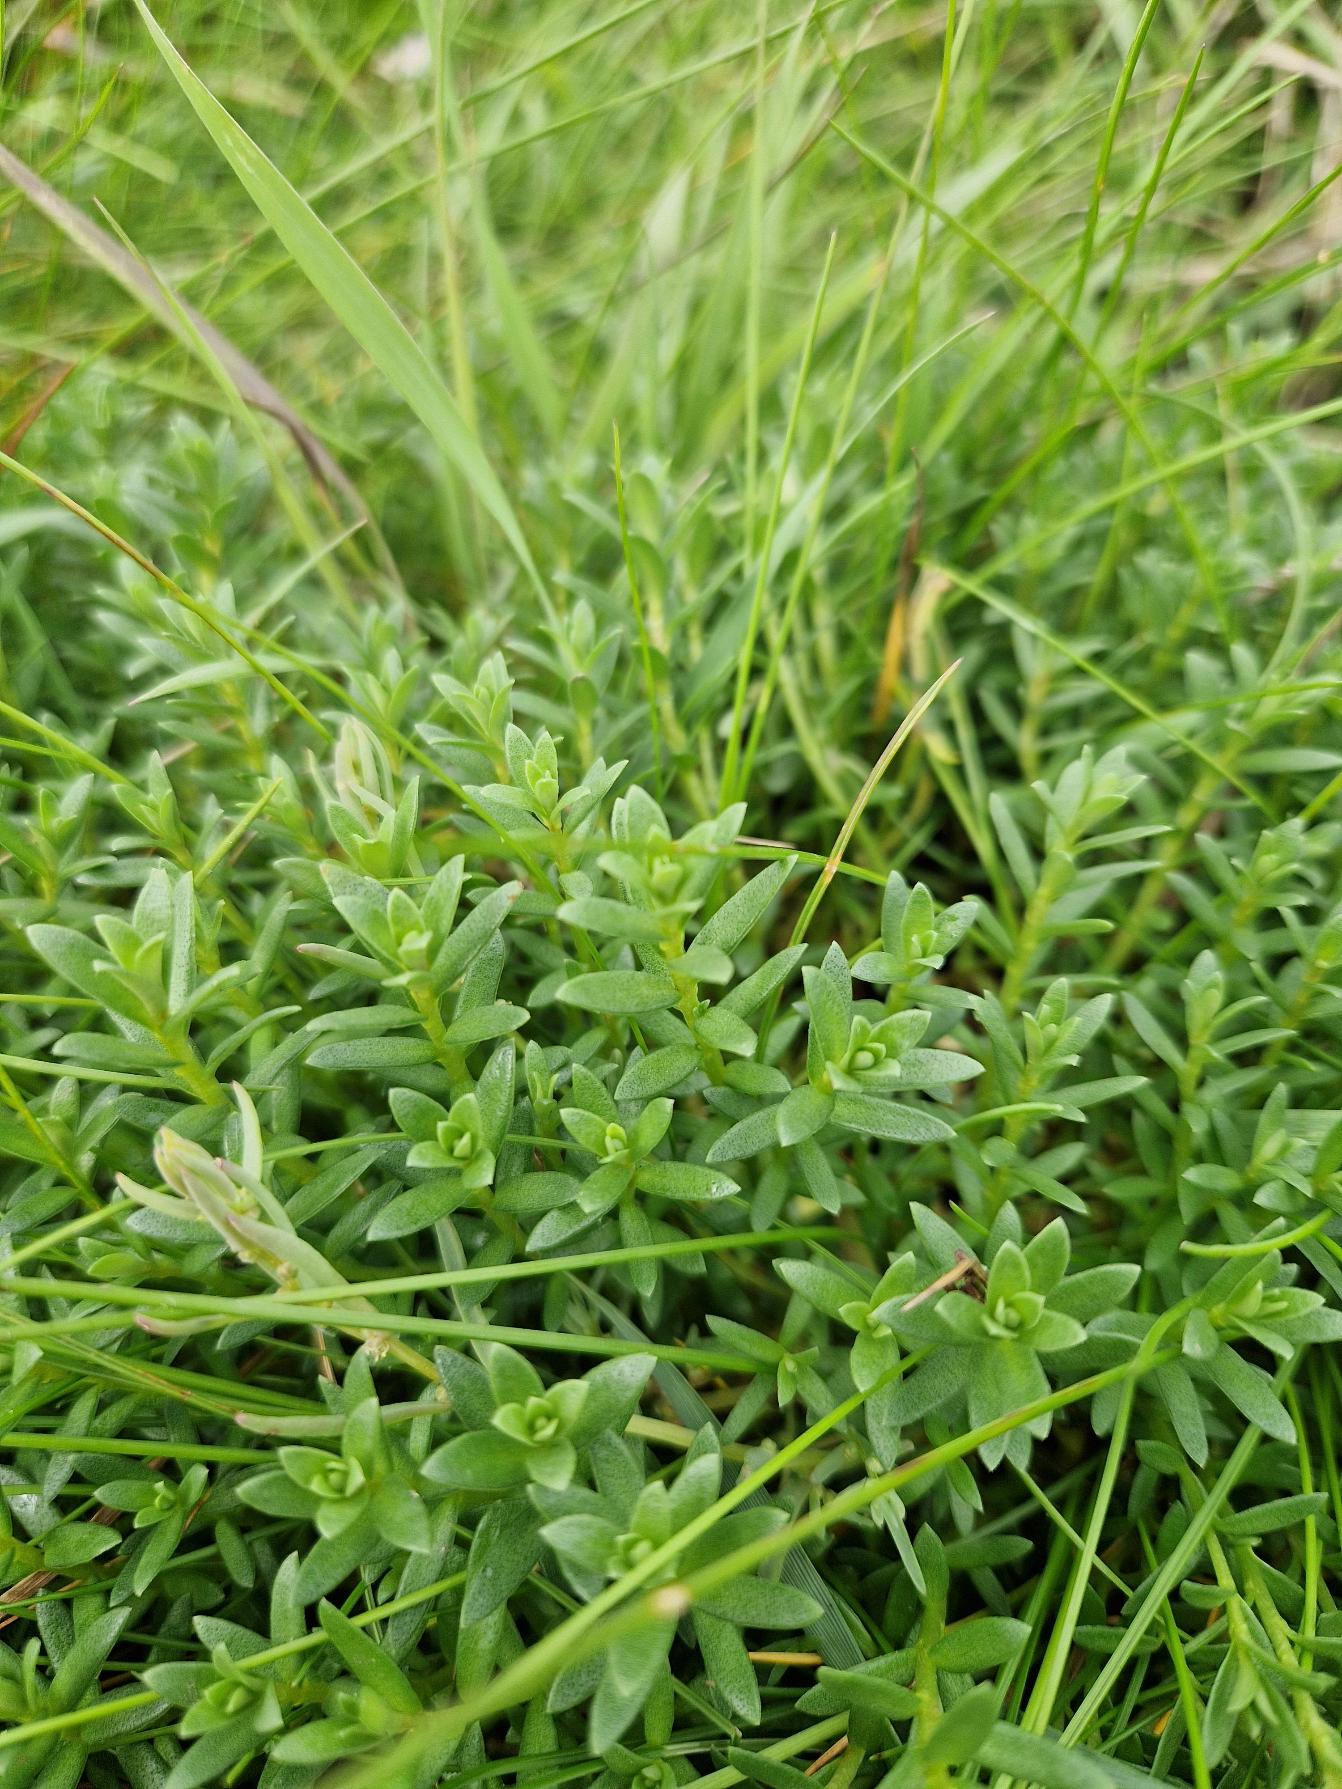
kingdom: Plantae
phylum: Tracheophyta
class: Magnoliopsida
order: Ericales
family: Primulaceae
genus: Lysimachia
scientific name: Lysimachia maritima
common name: Sandkryb
